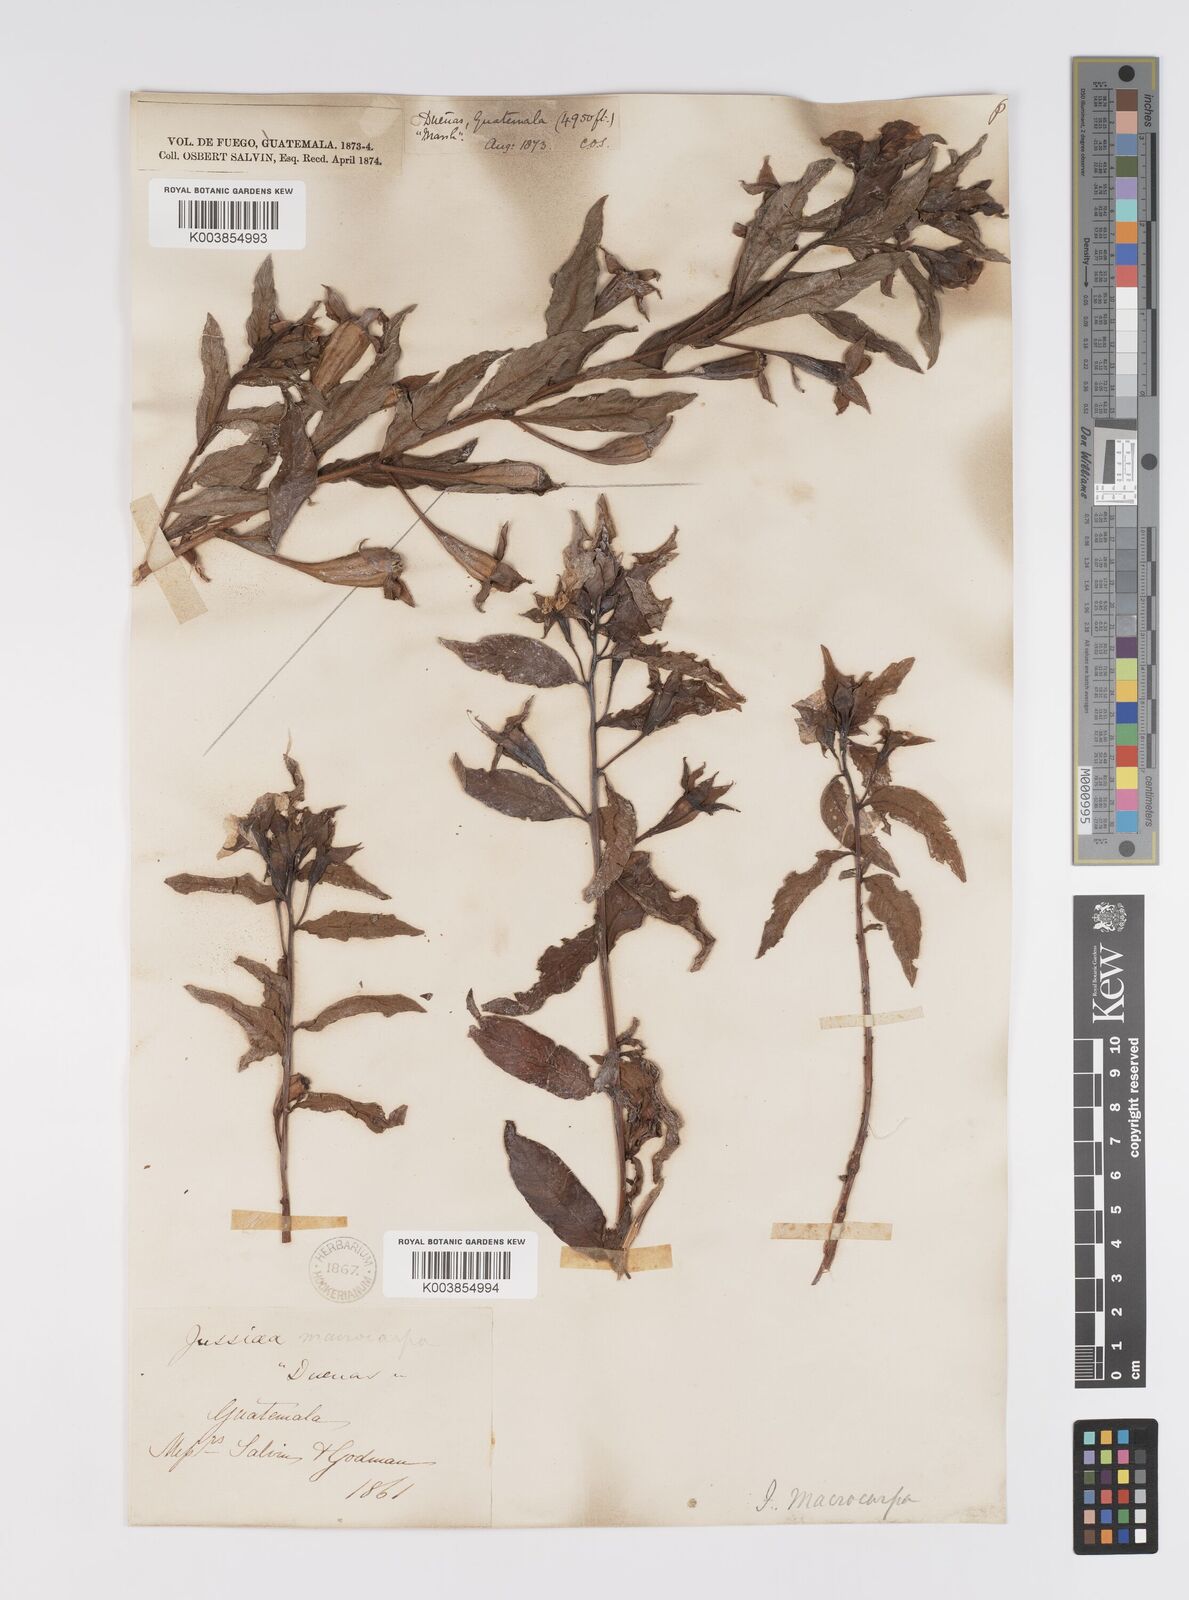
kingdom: Plantae
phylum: Tracheophyta
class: Magnoliopsida
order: Myrtales
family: Onagraceae
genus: Ludwigia
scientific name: Ludwigia peruviana
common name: Peruvian primrose-willow
